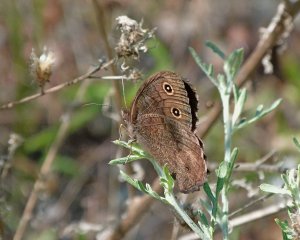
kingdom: Animalia
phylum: Arthropoda
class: Insecta
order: Lepidoptera
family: Nymphalidae
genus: Cercyonis
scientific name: Cercyonis pegala
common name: Common Wood-Nymph
